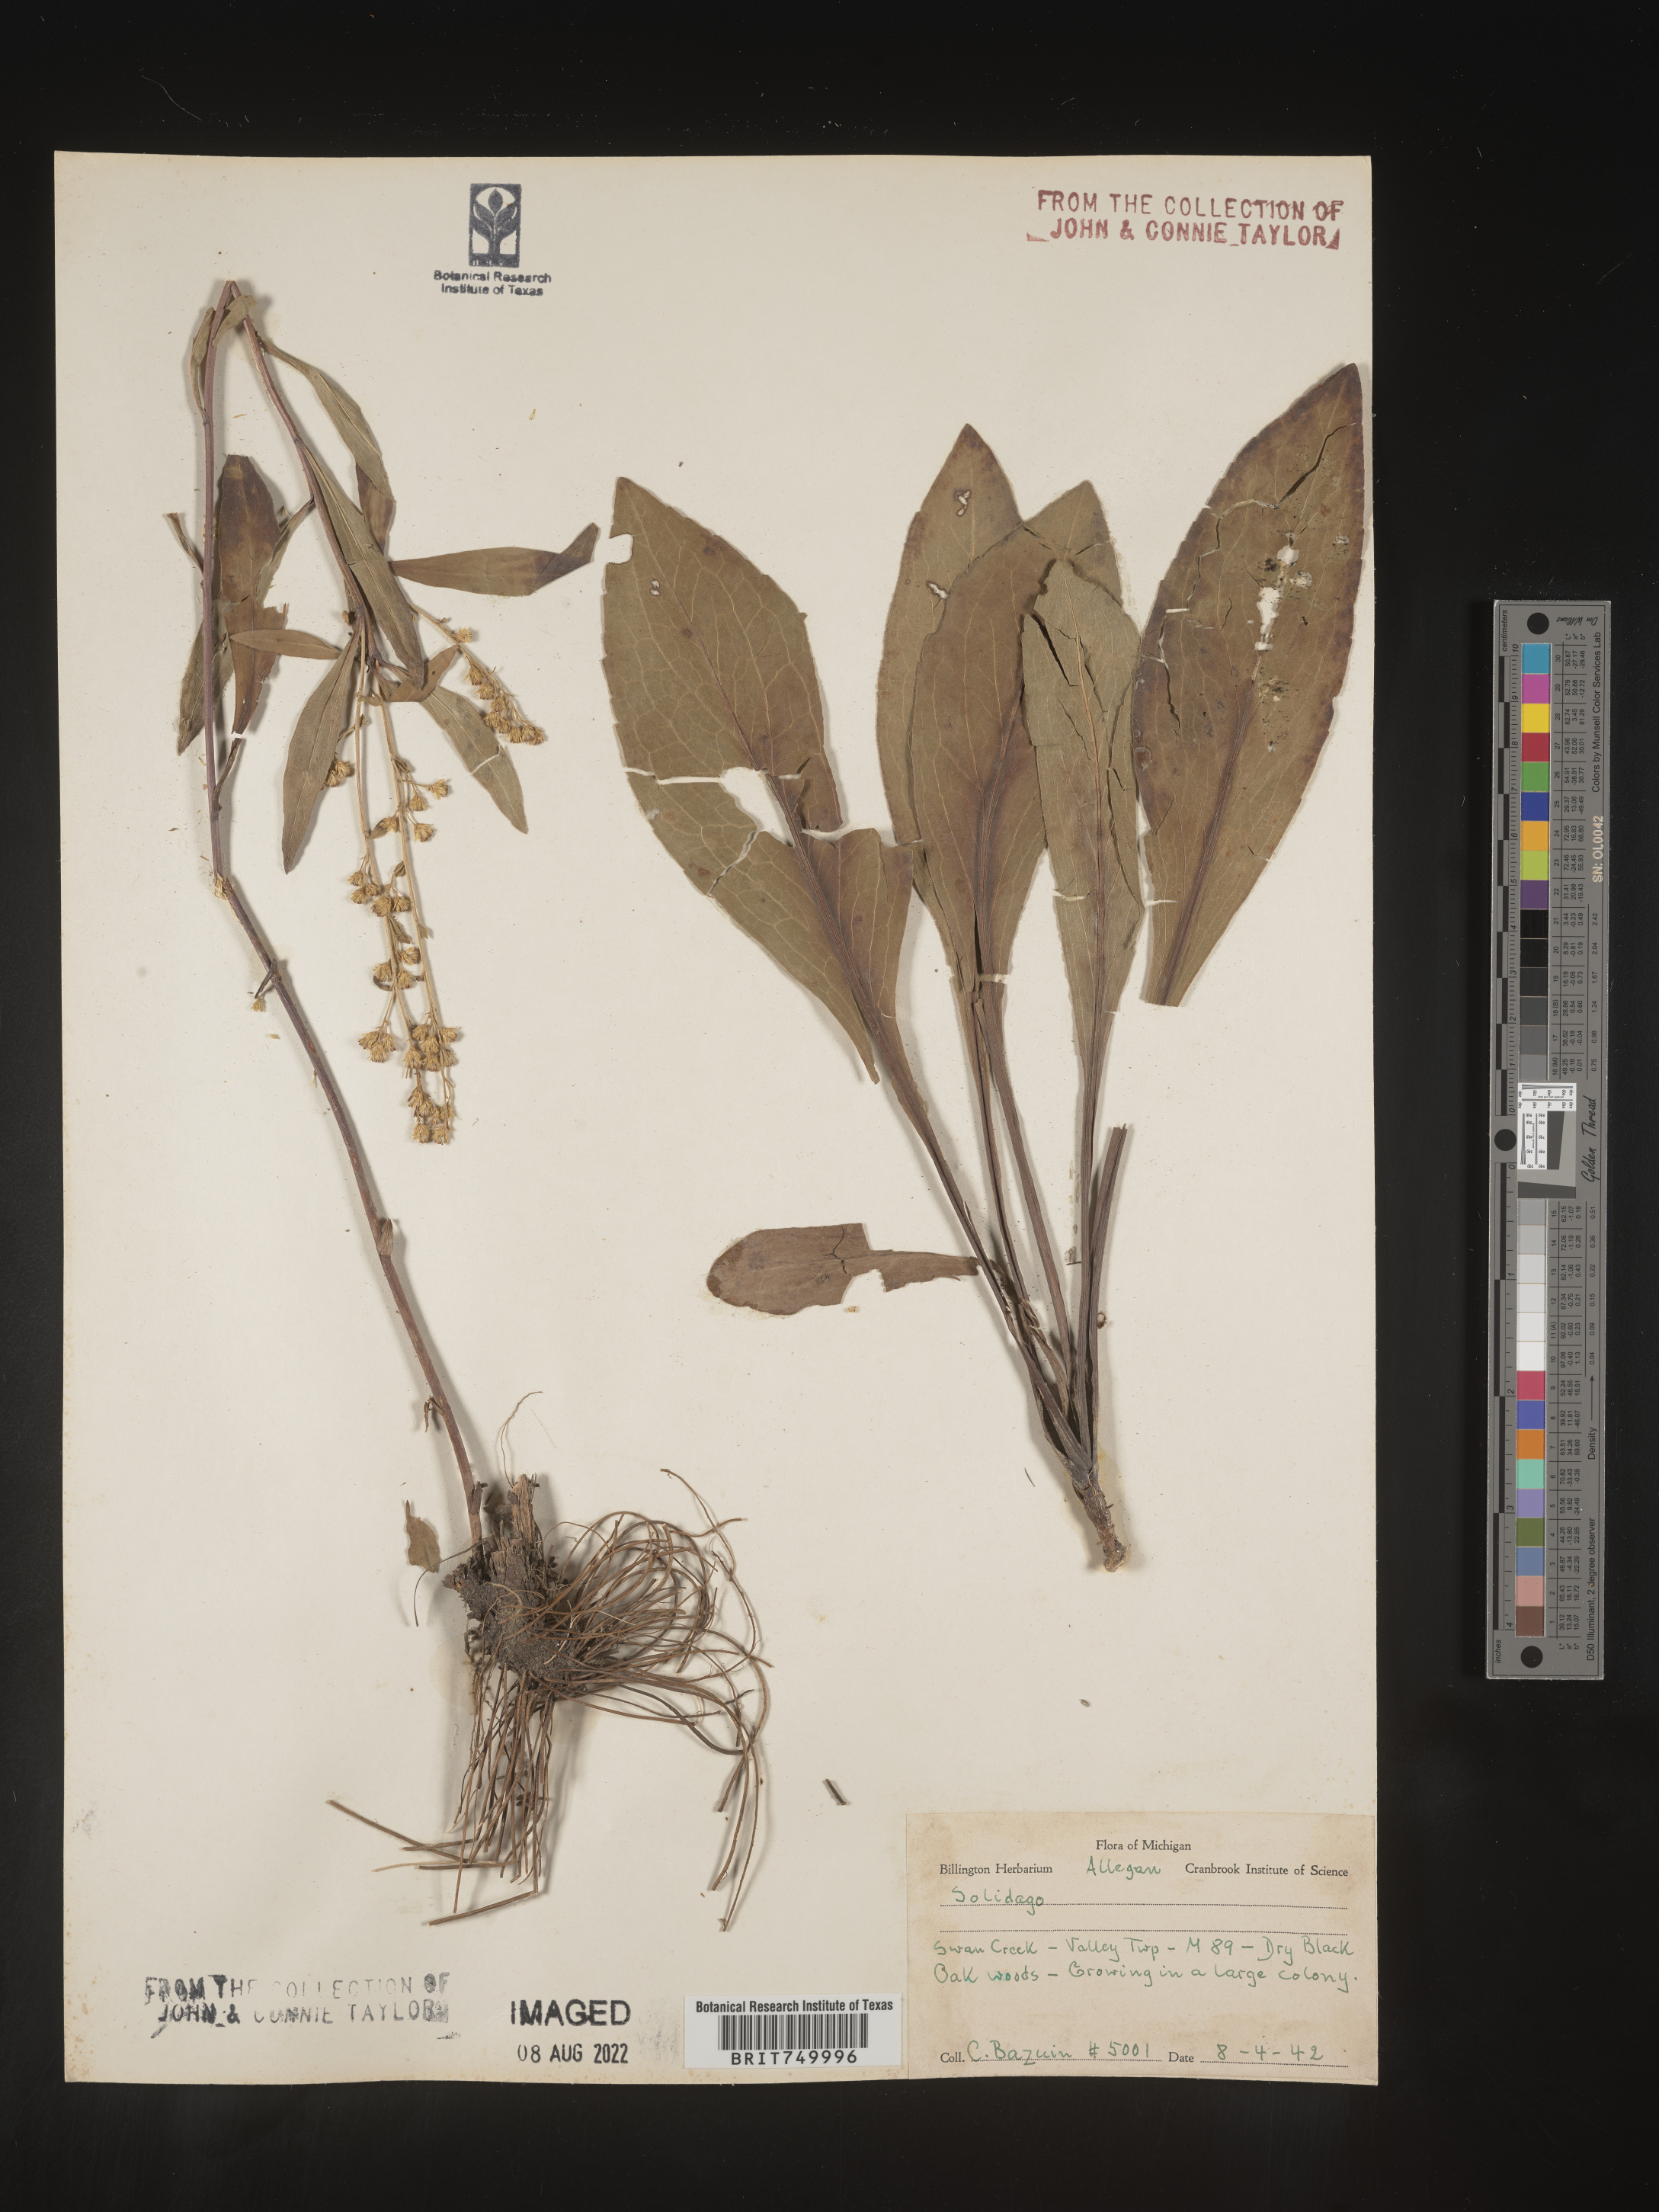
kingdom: Plantae
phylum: Tracheophyta
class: Magnoliopsida
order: Asterales
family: Asteraceae
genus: Solidago
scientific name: Solidago
